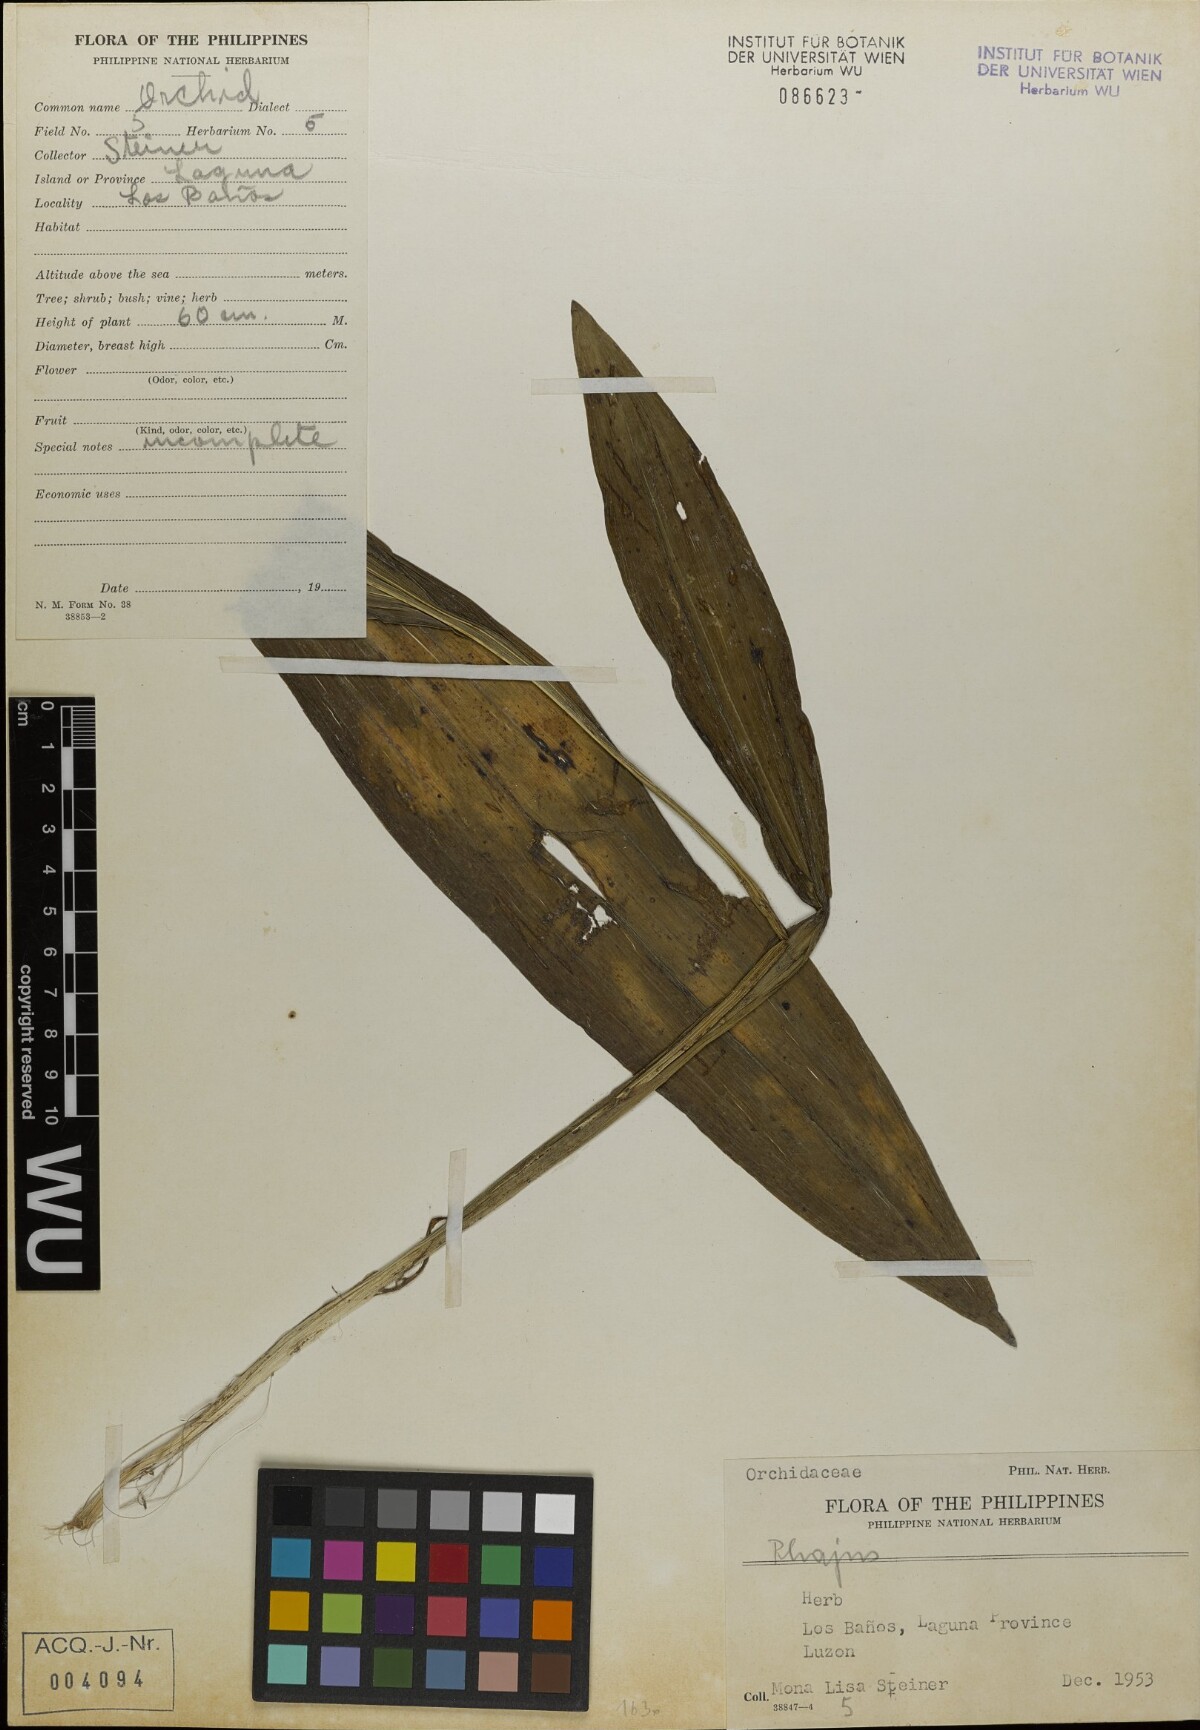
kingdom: Plantae
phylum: Tracheophyta
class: Liliopsida
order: Asparagales
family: Orchidaceae
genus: Calanthe
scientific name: Calanthe
